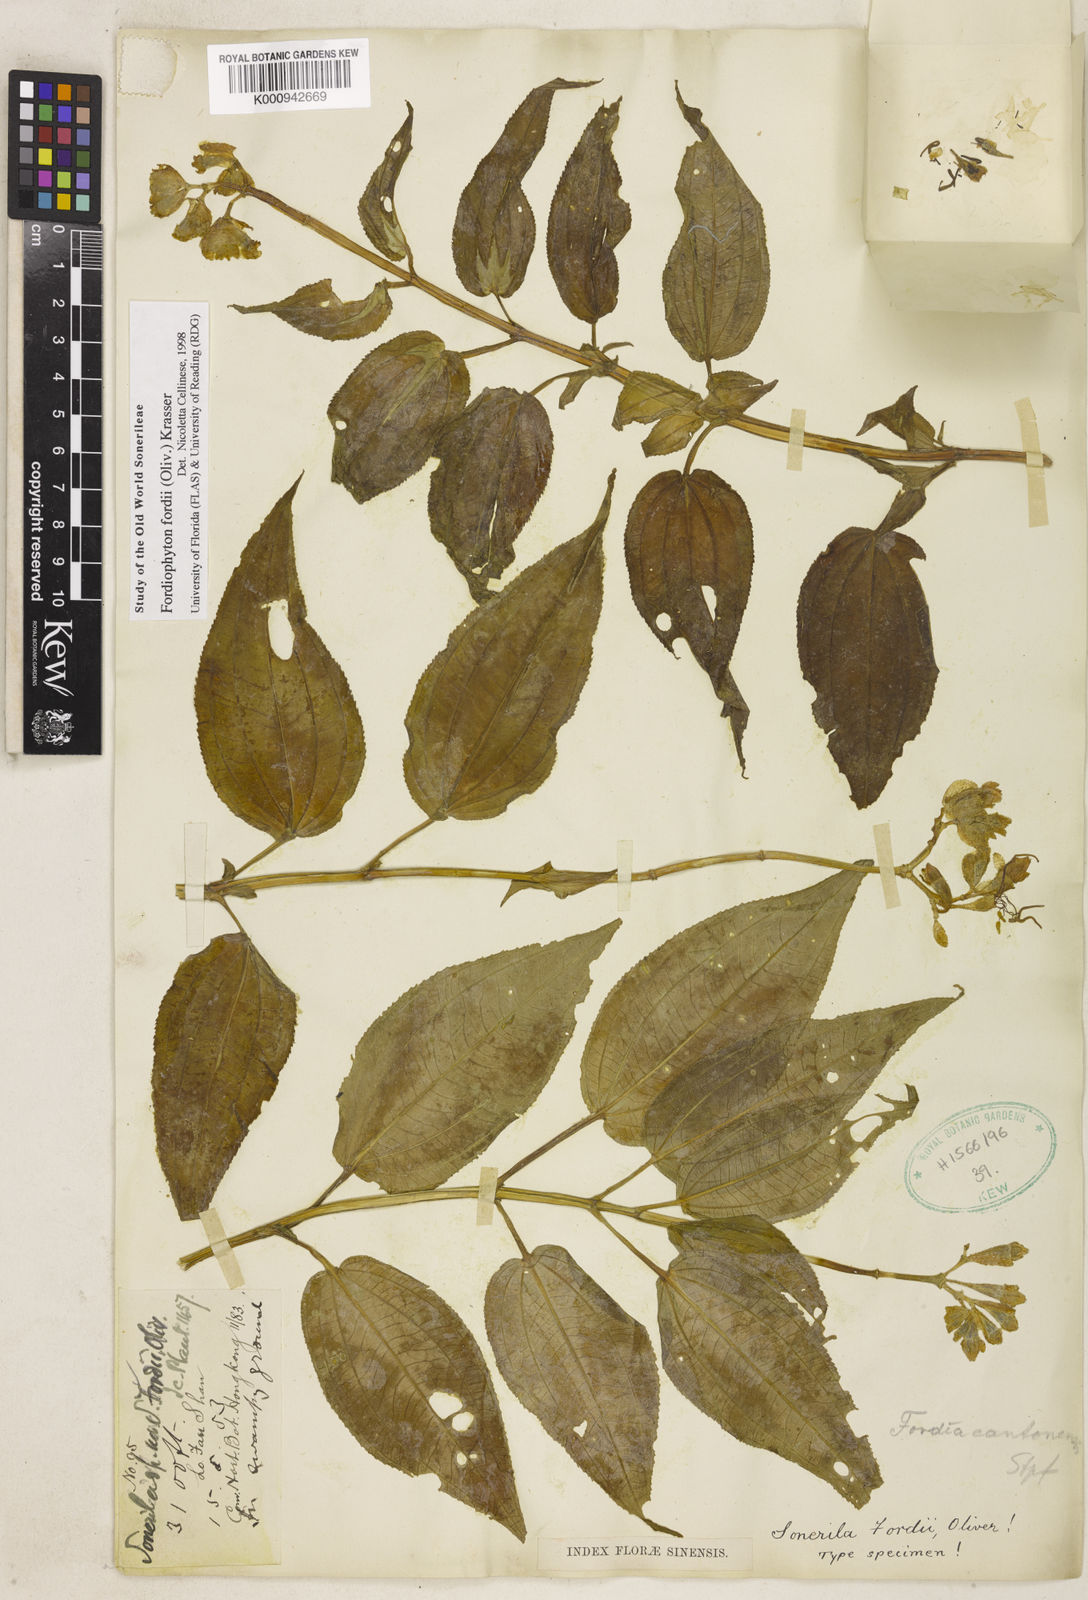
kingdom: Plantae
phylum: Tracheophyta
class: Magnoliopsida
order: Myrtales
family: Melastomataceae
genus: Fordiophyton
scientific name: Fordiophyton faberi
